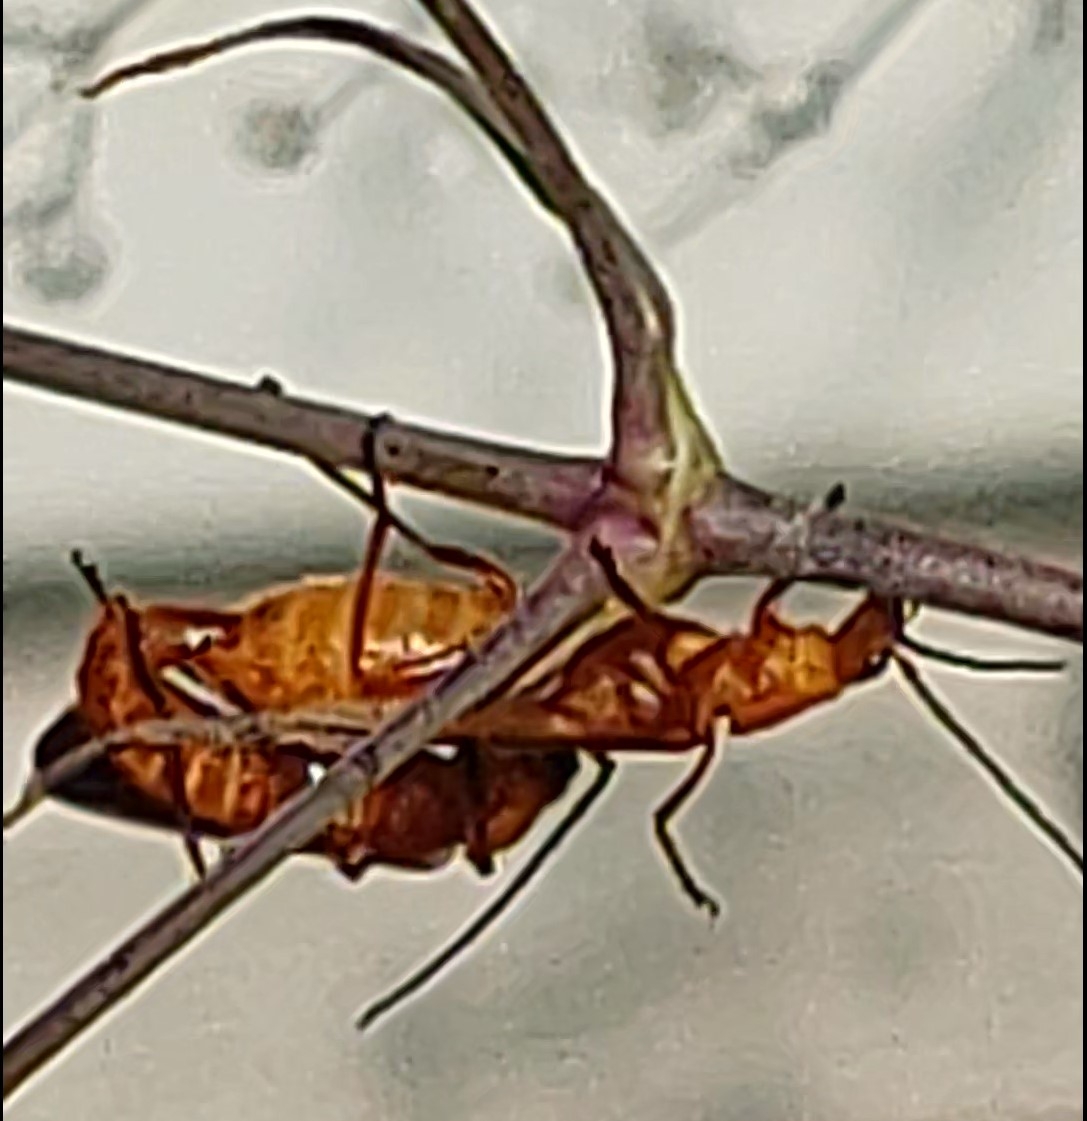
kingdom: Animalia
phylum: Arthropoda
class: Insecta
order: Coleoptera
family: Cantharidae
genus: Rhagonycha
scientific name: Rhagonycha fulva
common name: Præstebille
